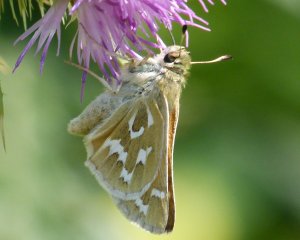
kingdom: Animalia
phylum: Arthropoda
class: Insecta
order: Lepidoptera
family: Hesperiidae
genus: Hesperia
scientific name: Hesperia comma
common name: Western Branded Skipper
